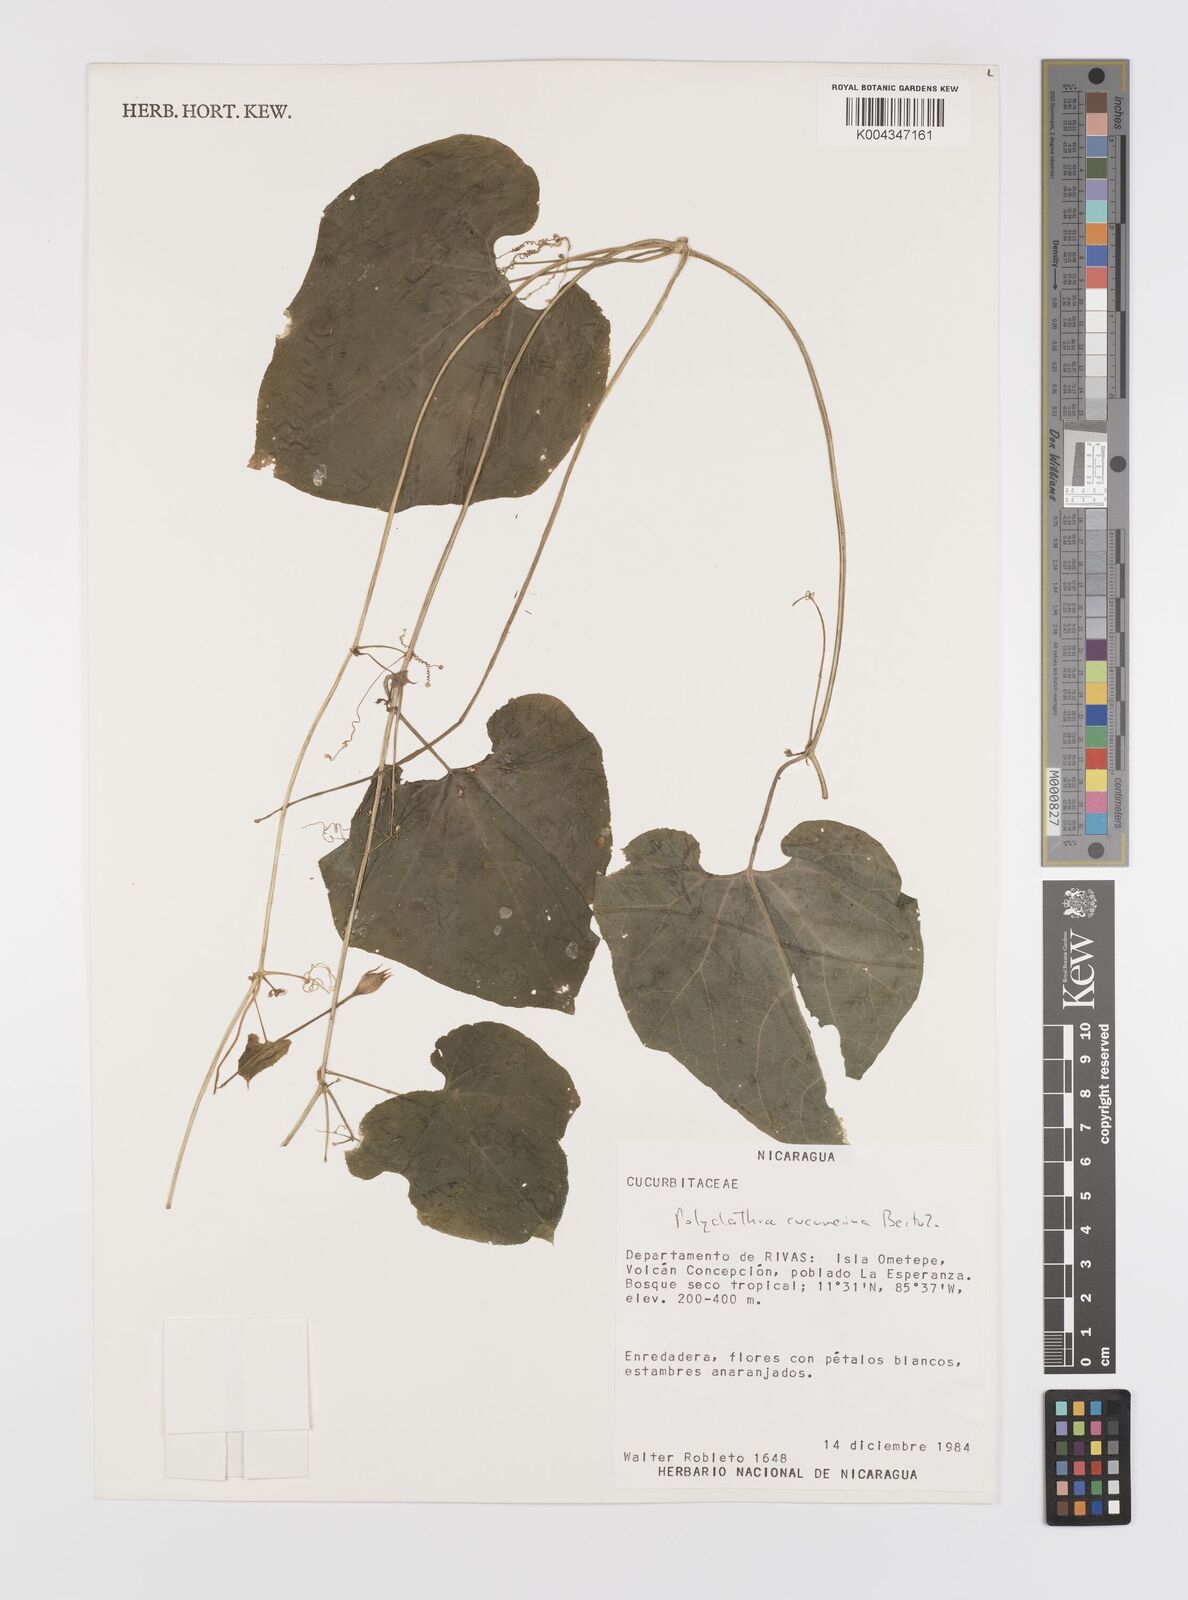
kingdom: Plantae
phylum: Tracheophyta
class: Magnoliopsida
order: Cucurbitales
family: Cucurbitaceae
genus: Polyclathra
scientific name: Polyclathra cucumerina
